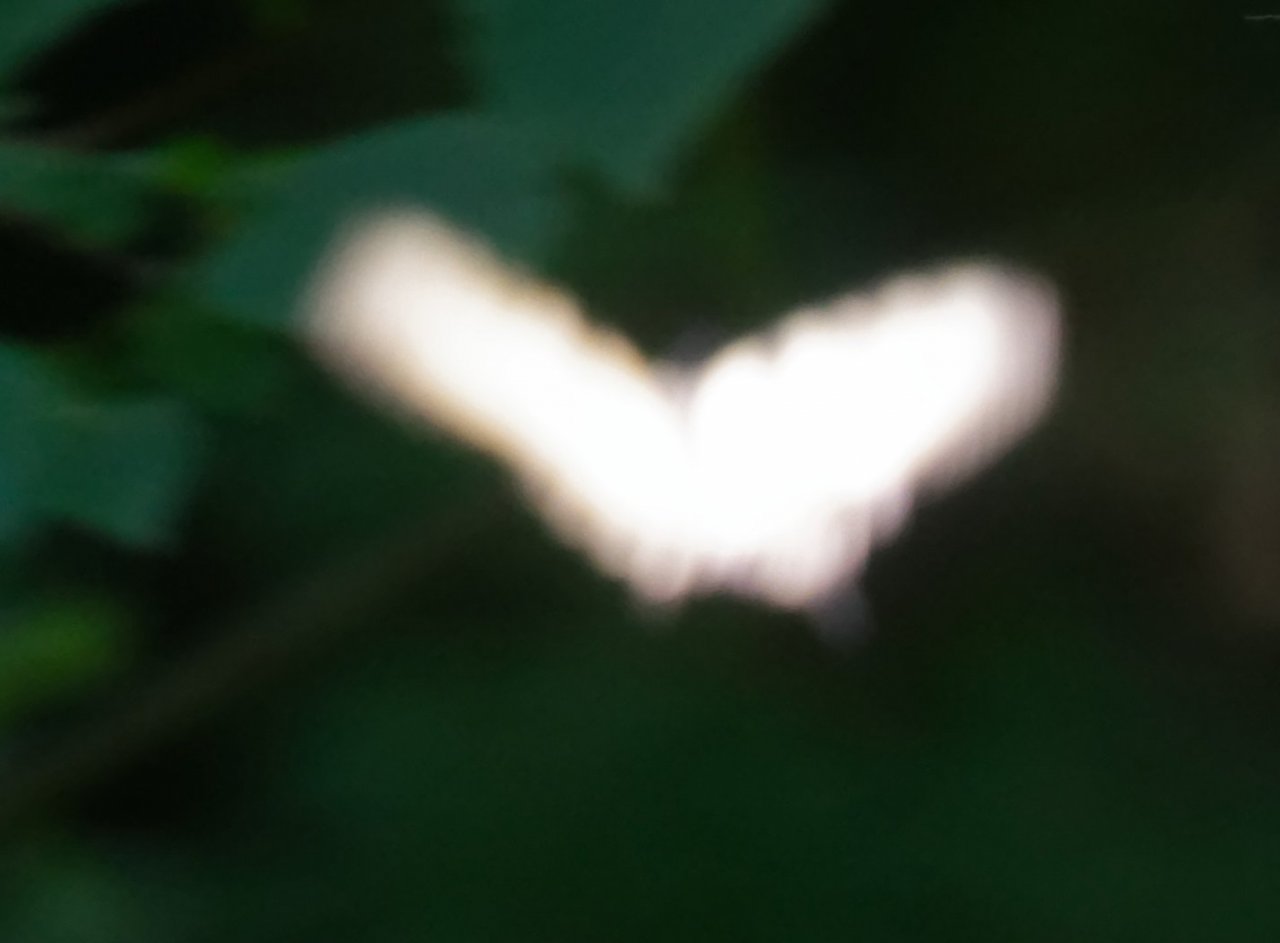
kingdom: Animalia
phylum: Arthropoda
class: Insecta
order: Lepidoptera
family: Papilionidae
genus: Pterourus
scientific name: Pterourus
